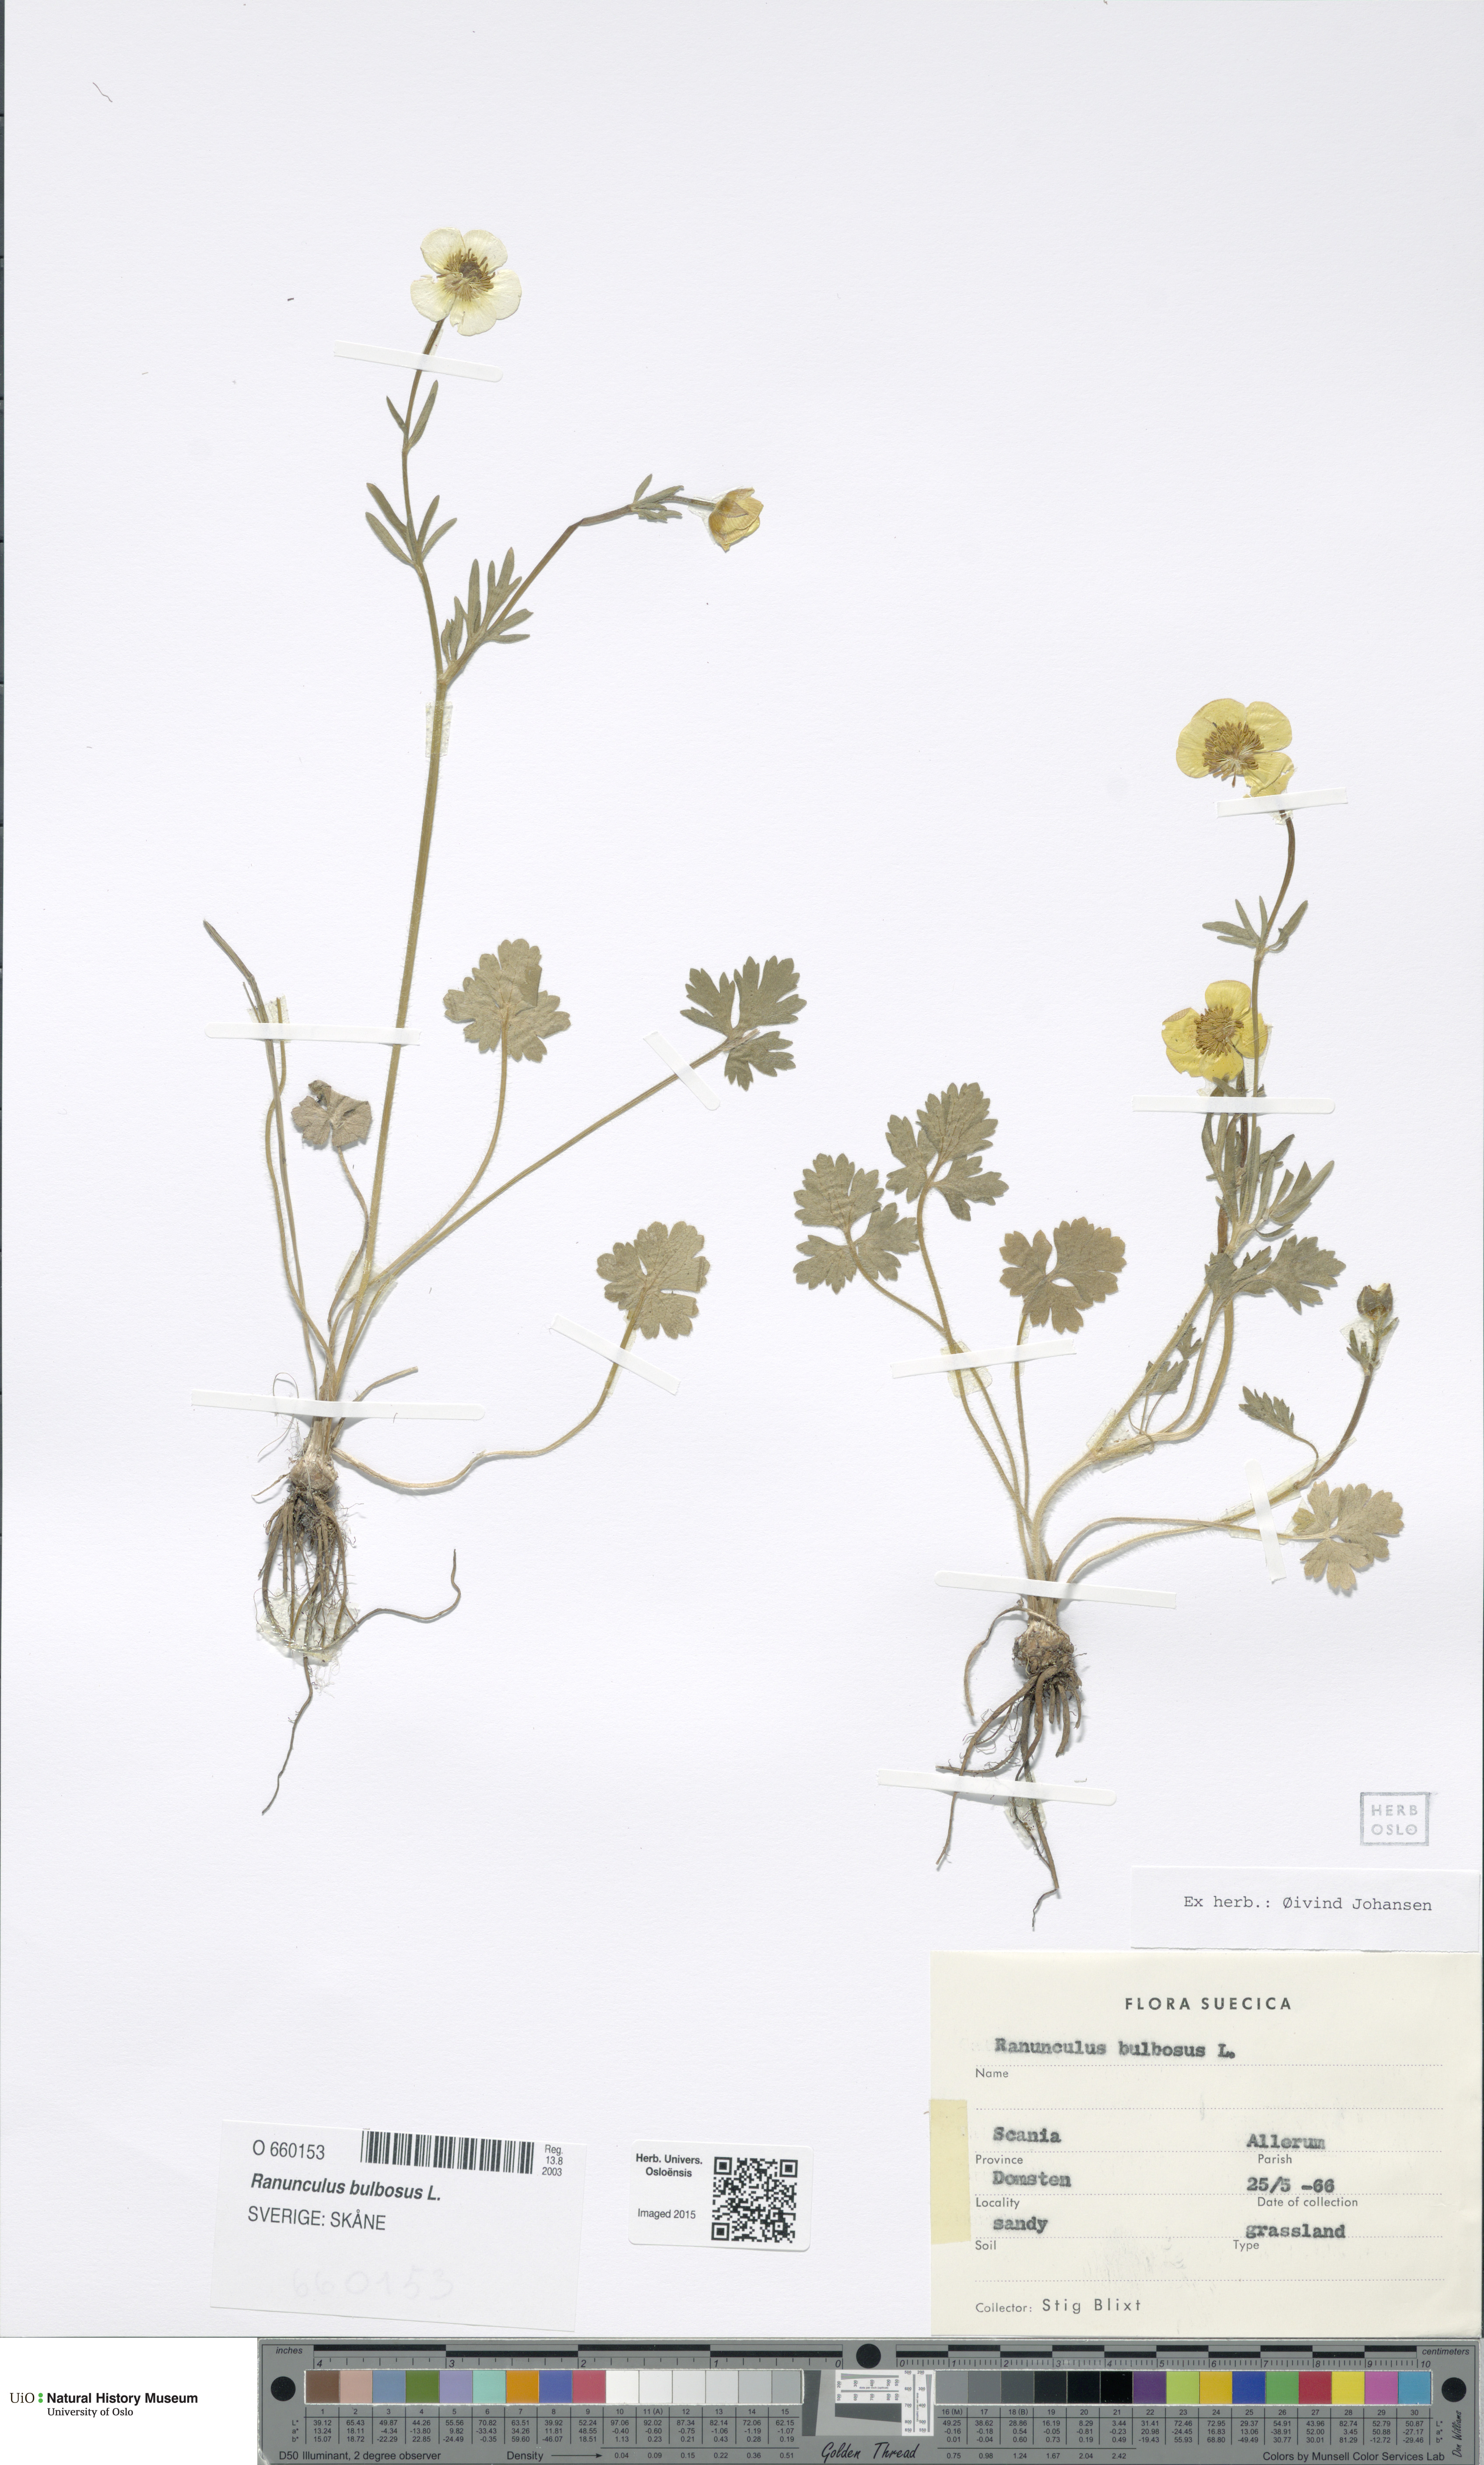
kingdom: Plantae
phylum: Tracheophyta
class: Magnoliopsida
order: Ranunculales
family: Ranunculaceae
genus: Ranunculus
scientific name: Ranunculus bulbosus
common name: Bulbous buttercup
